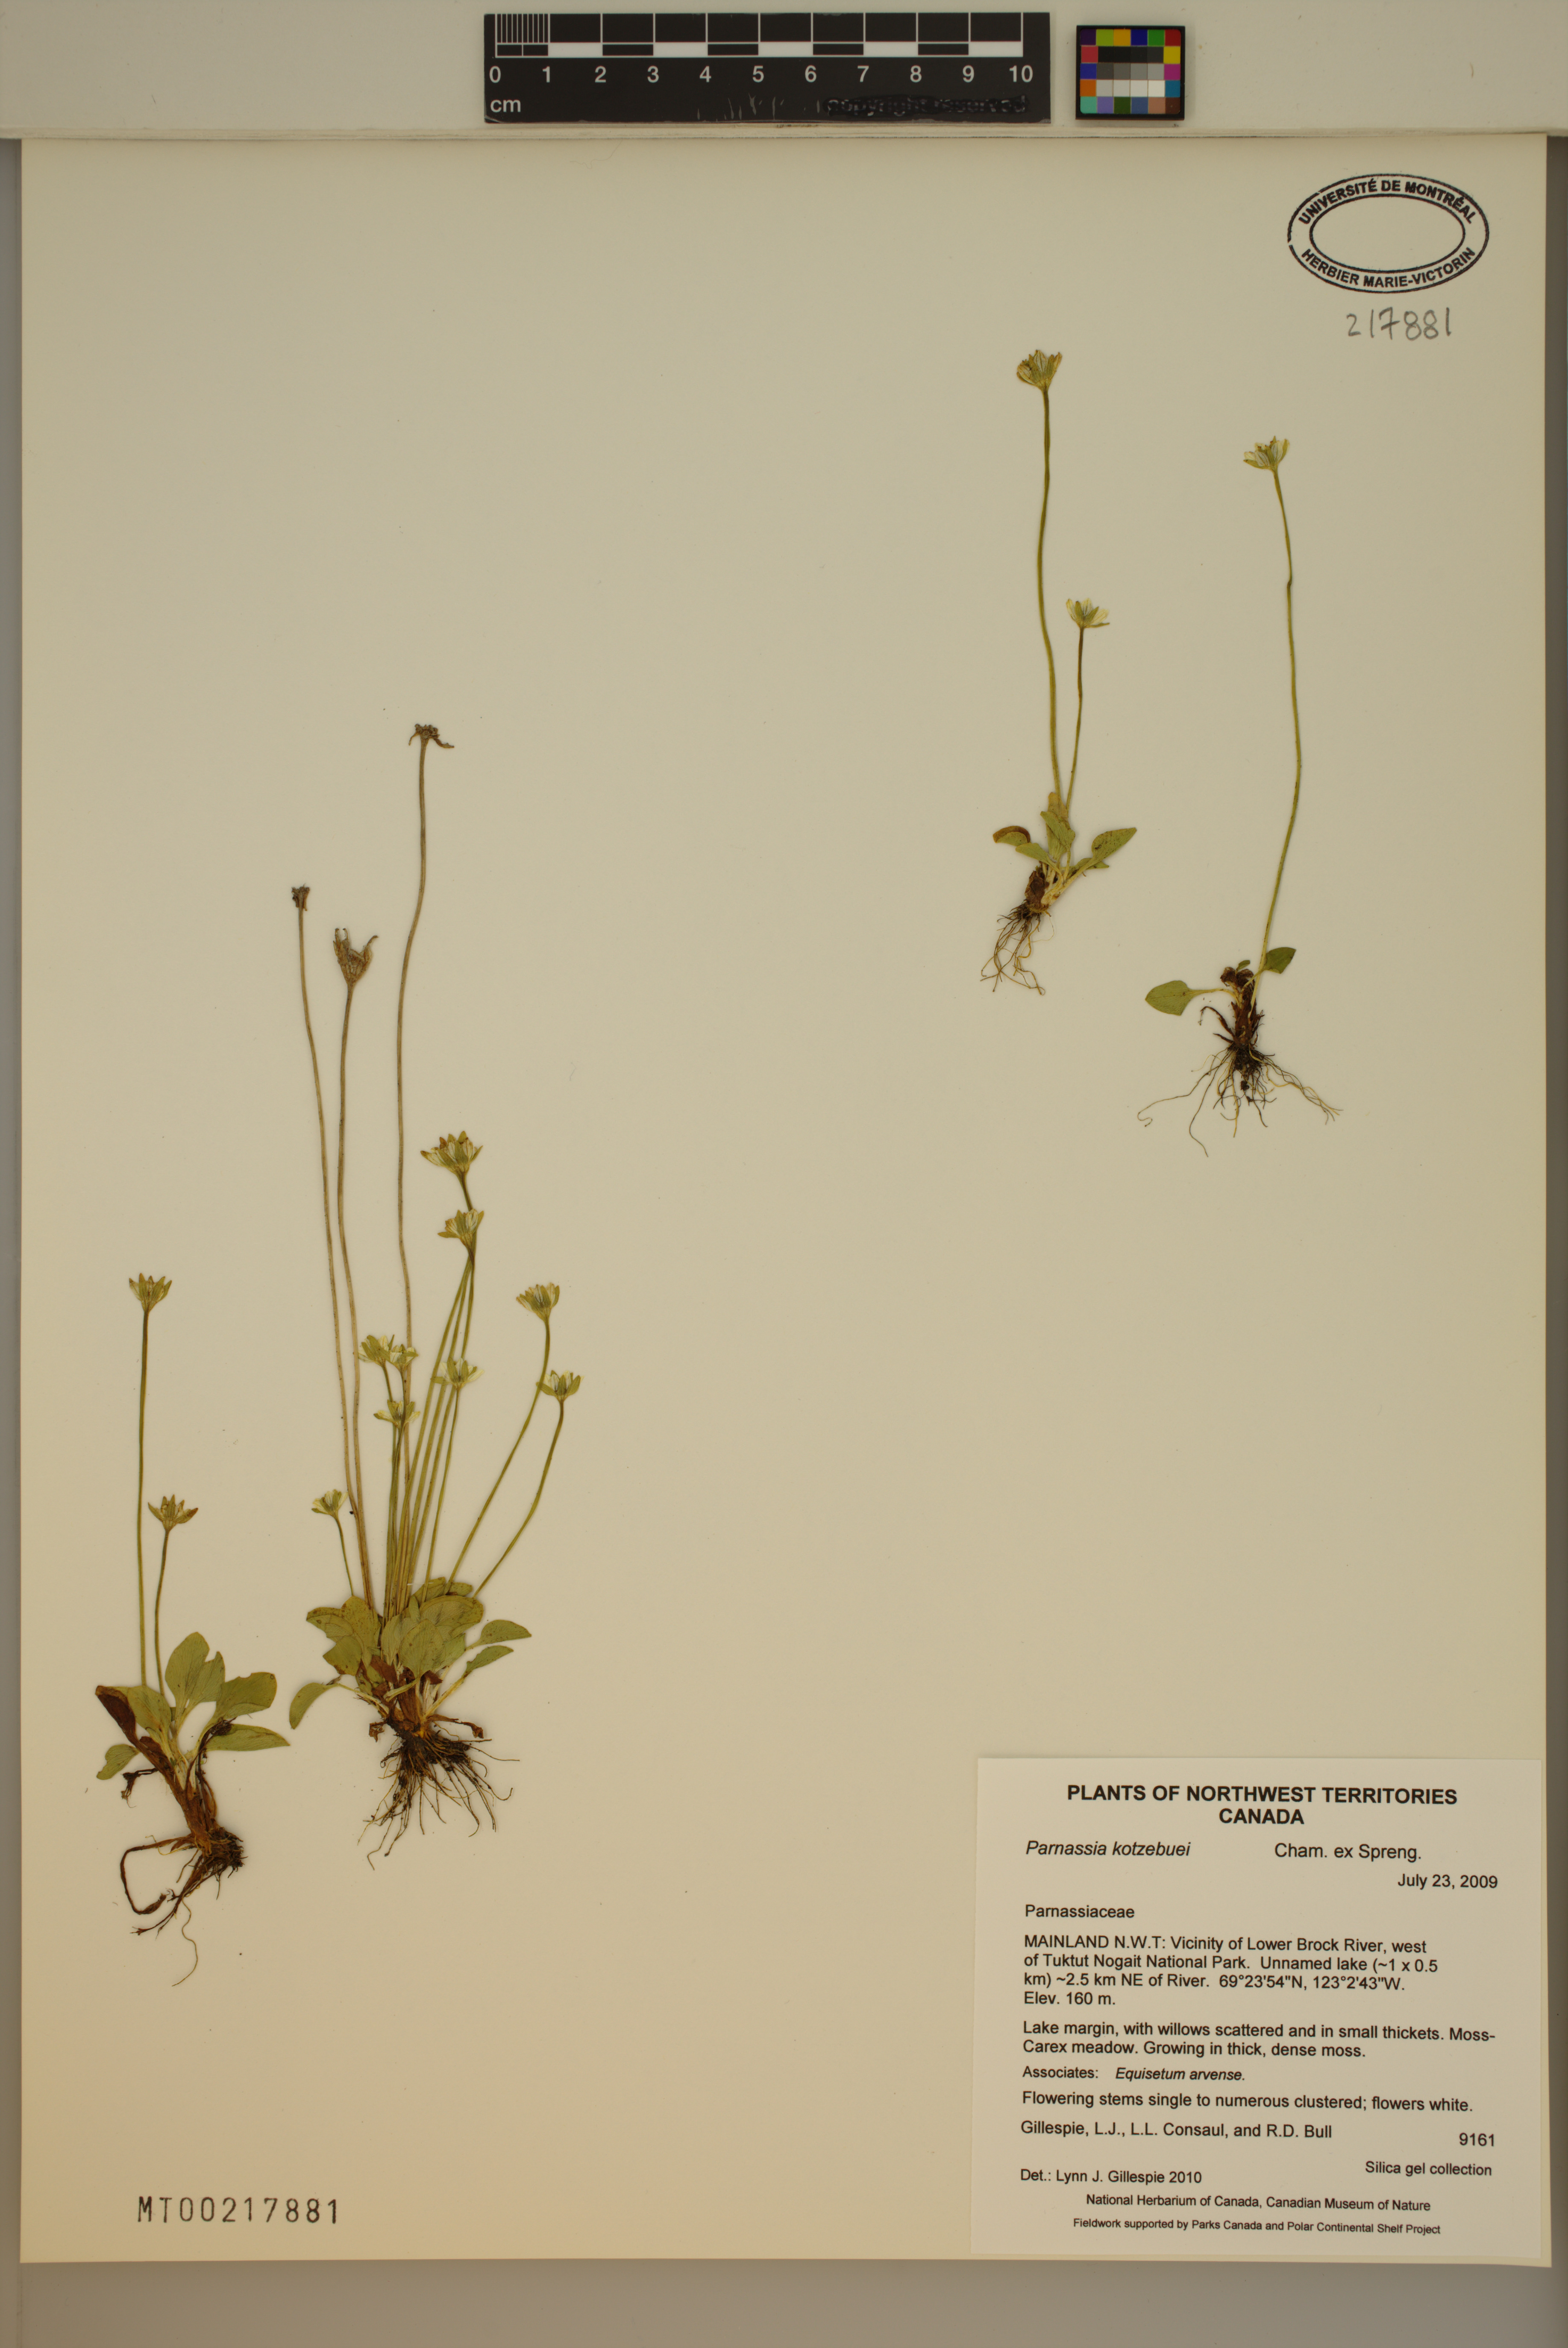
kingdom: Plantae
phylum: Tracheophyta
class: Magnoliopsida
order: Celastrales
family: Parnassiaceae
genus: Parnassia
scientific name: Parnassia kotzebuei
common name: Kotzebue's grass-of-parnassus
